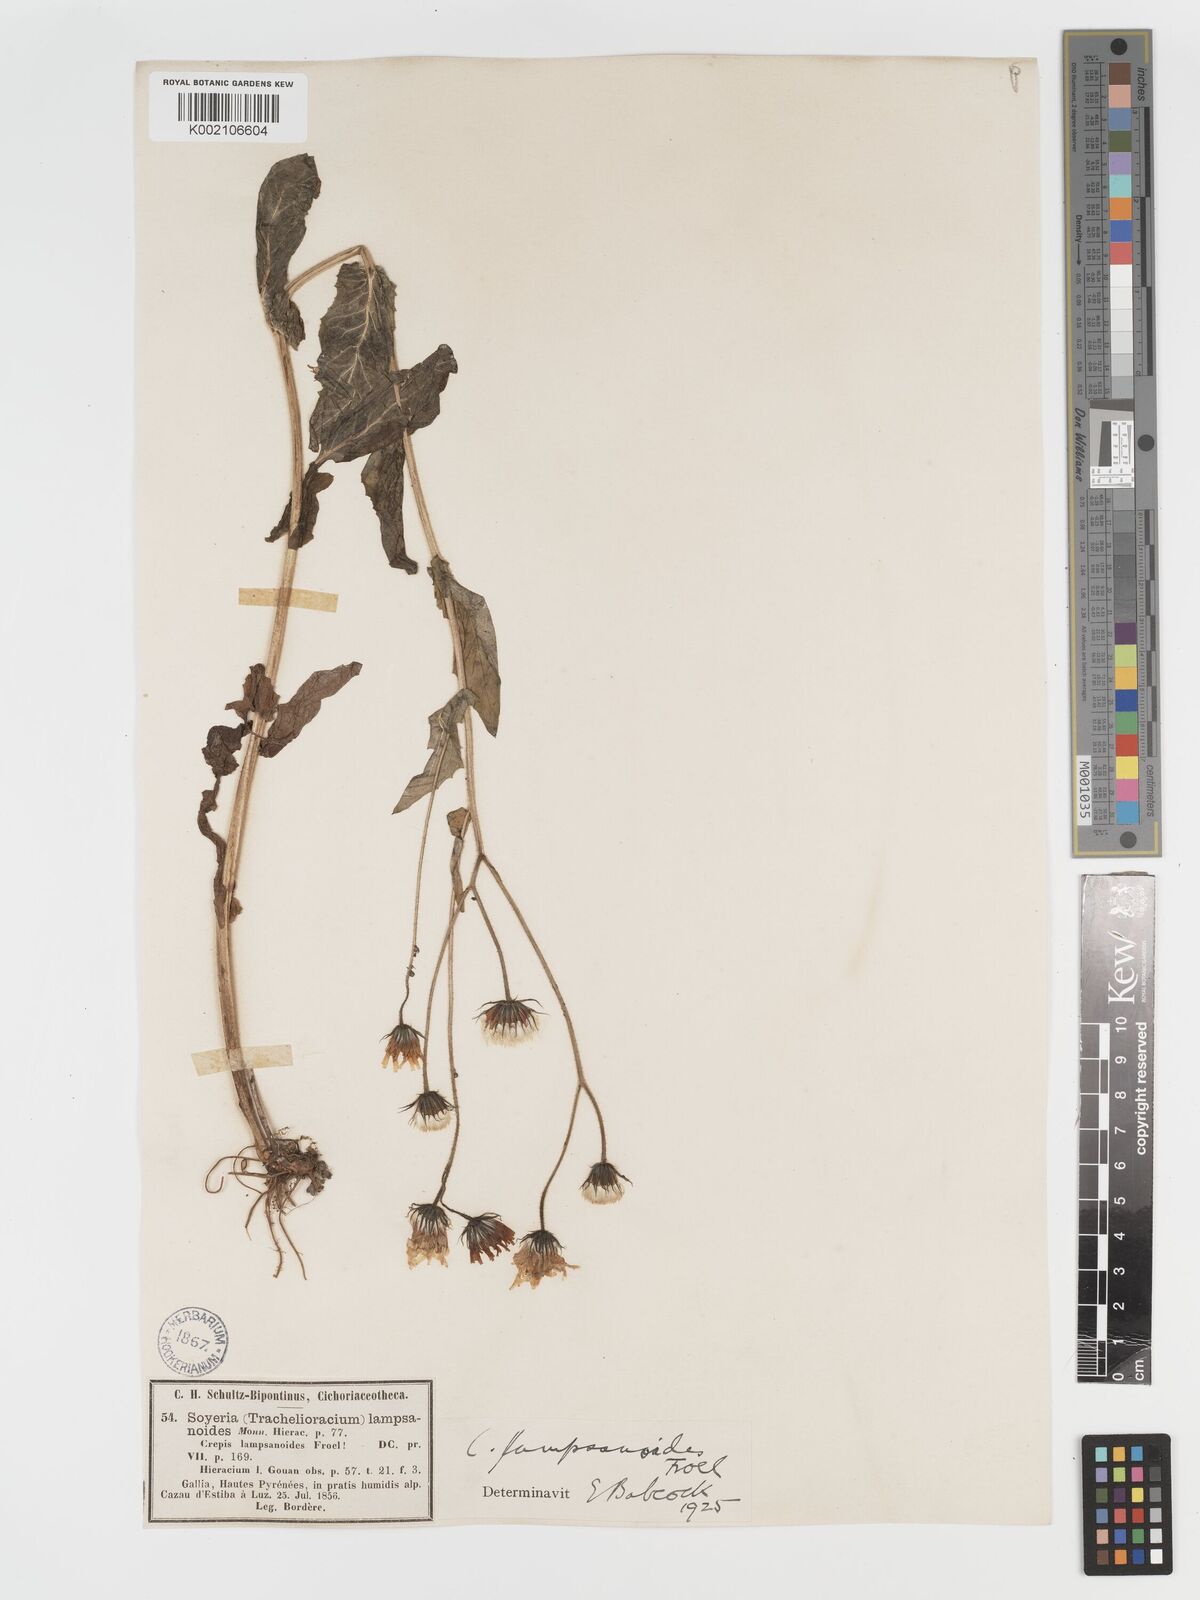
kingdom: Plantae
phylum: Tracheophyta
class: Magnoliopsida
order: Asterales
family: Asteraceae
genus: Crepis
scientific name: Crepis lampsanoides
